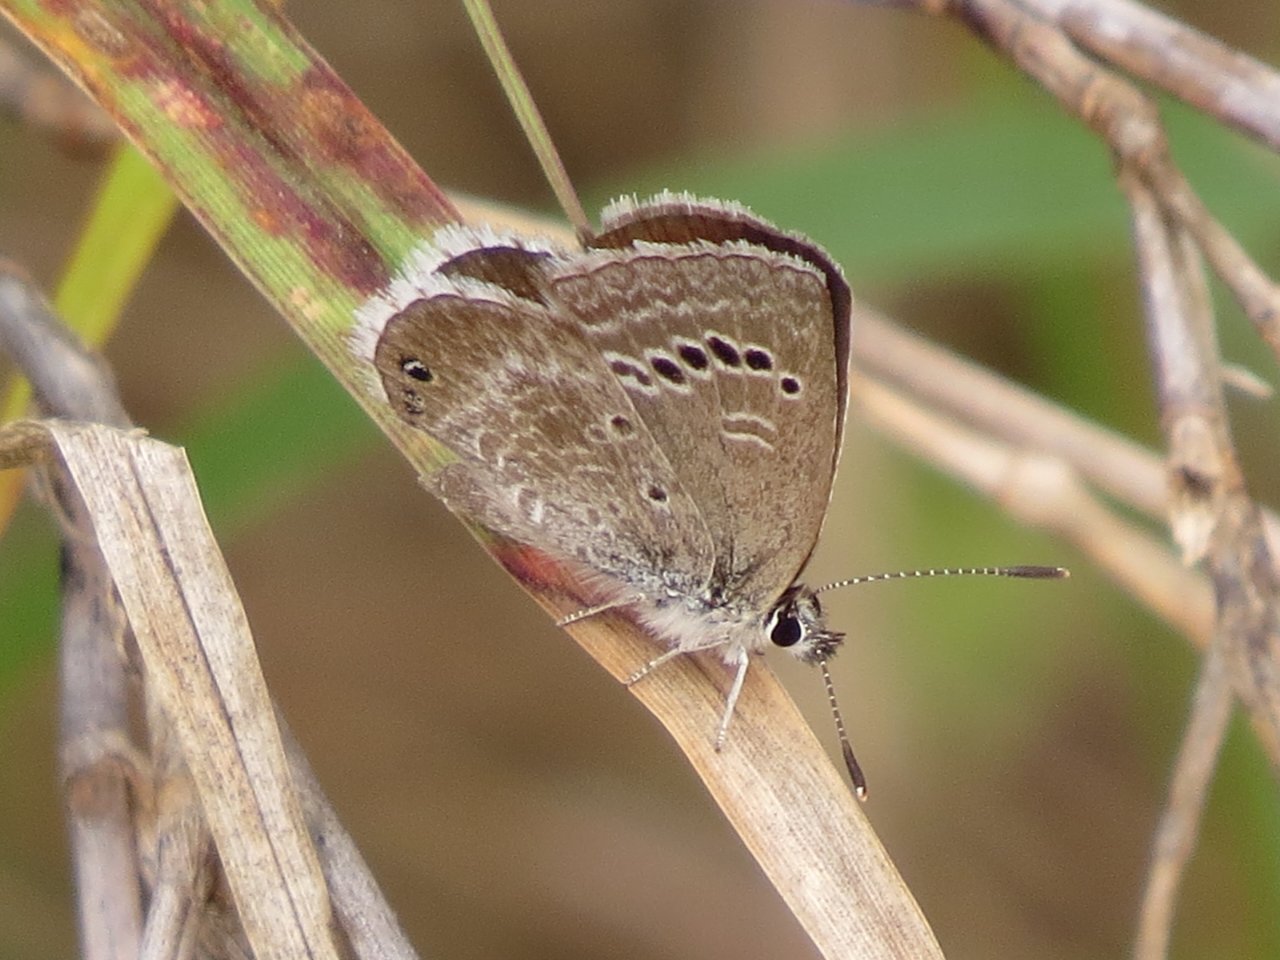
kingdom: Animalia
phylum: Arthropoda
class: Insecta
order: Lepidoptera
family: Lycaenidae
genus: Echinargus
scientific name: Echinargus isola
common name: Reakirt's Blue
